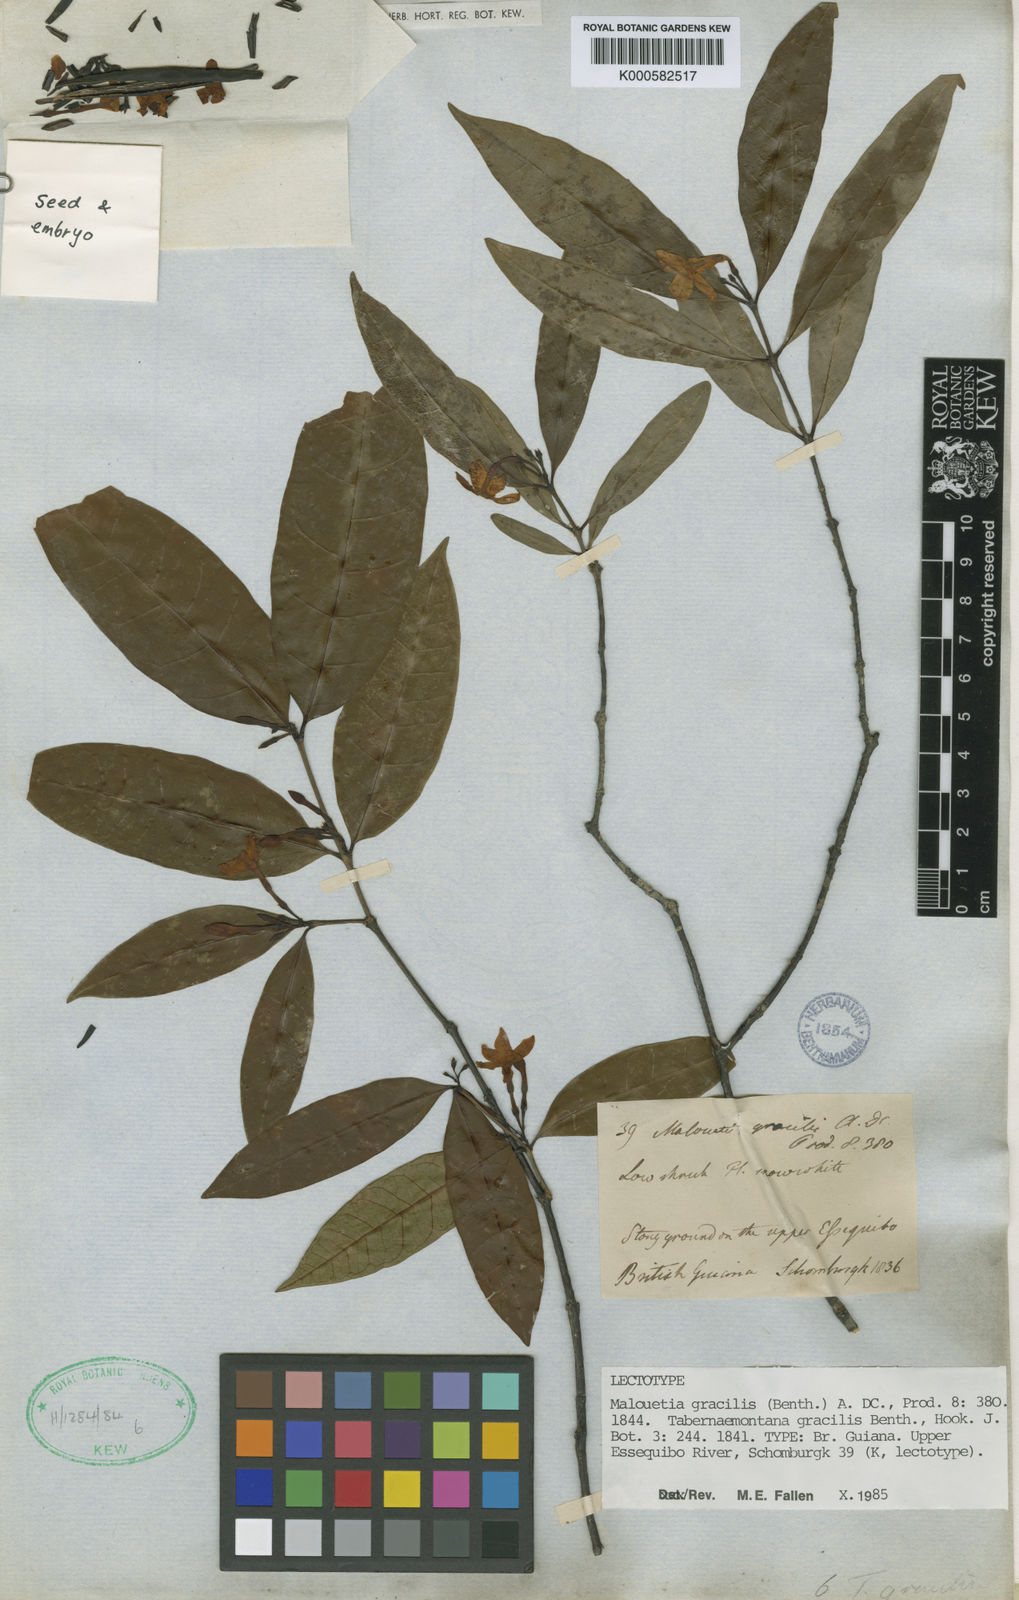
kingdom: Plantae
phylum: Tracheophyta
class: Magnoliopsida
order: Gentianales
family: Apocynaceae
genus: Malouetia
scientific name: Malouetia gracilis
